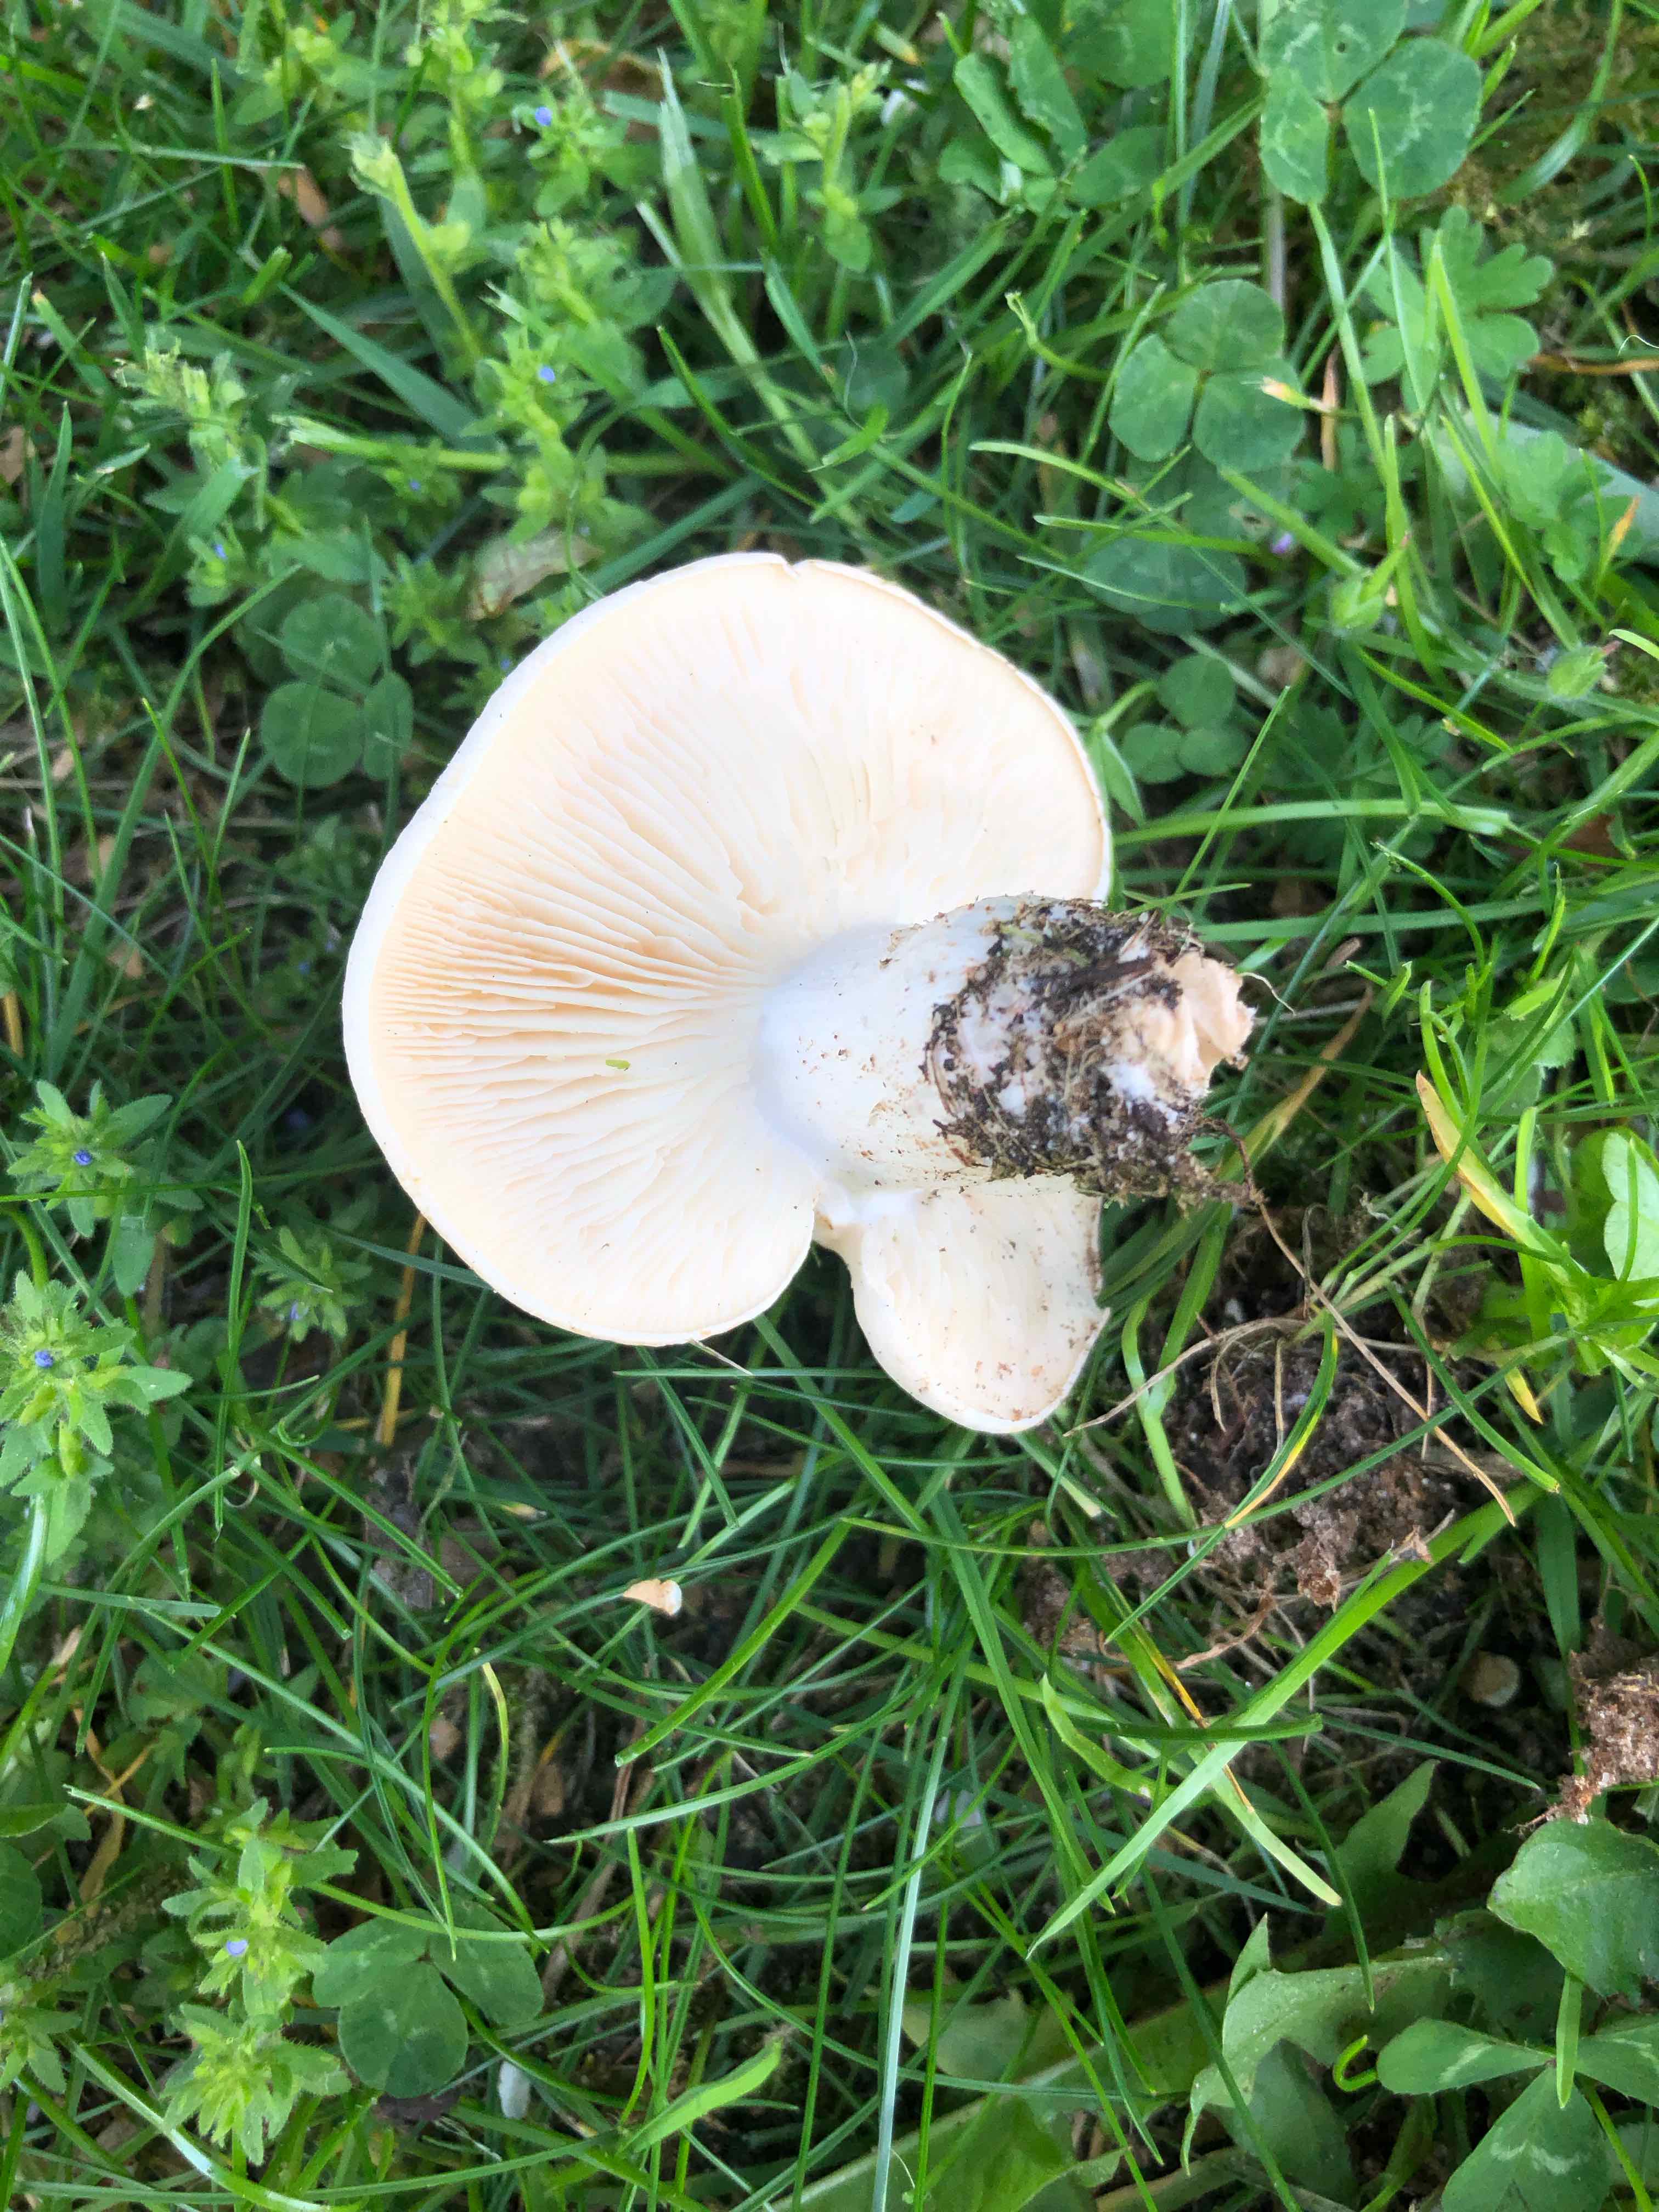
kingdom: Fungi
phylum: Basidiomycota
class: Agaricomycetes
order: Agaricales
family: Lyophyllaceae
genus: Calocybe
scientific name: Calocybe gambosa
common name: vårmusseron
